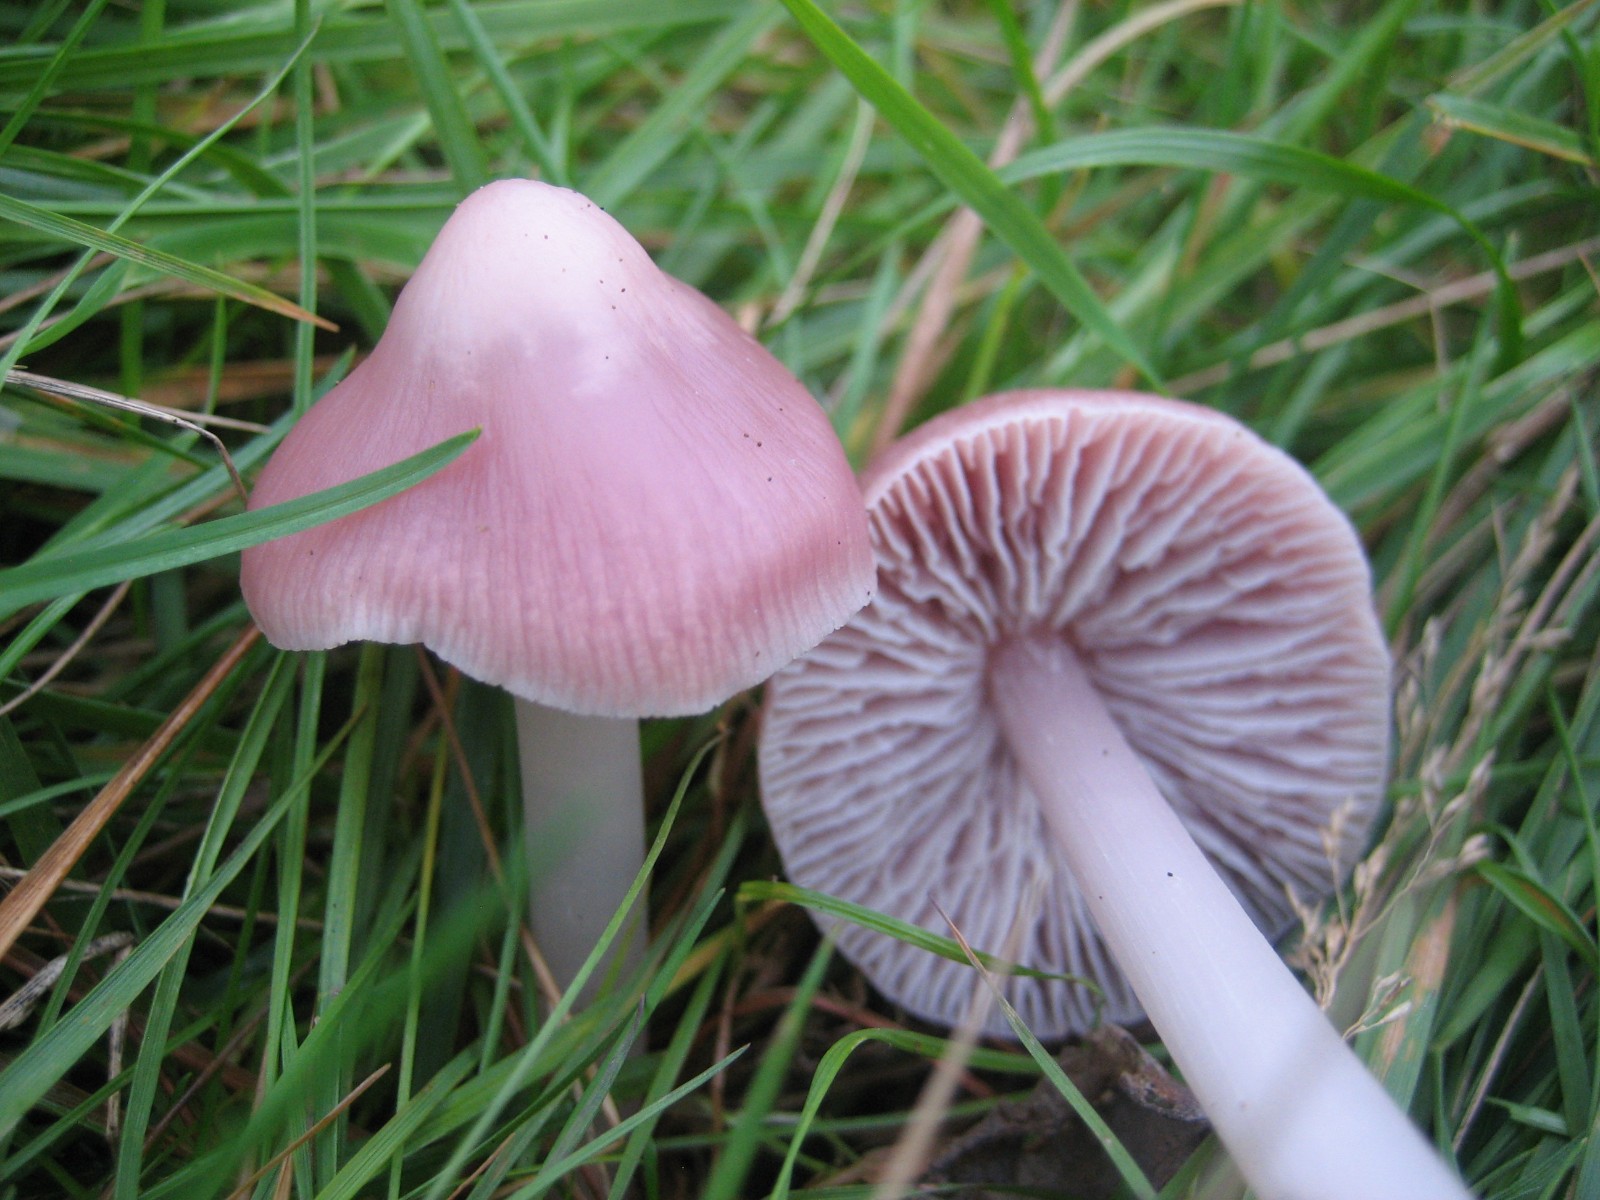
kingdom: Fungi
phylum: Basidiomycota
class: Agaricomycetes
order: Agaricales
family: Mycenaceae
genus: Mycena
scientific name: Mycena rosea
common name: rosa huesvamp
